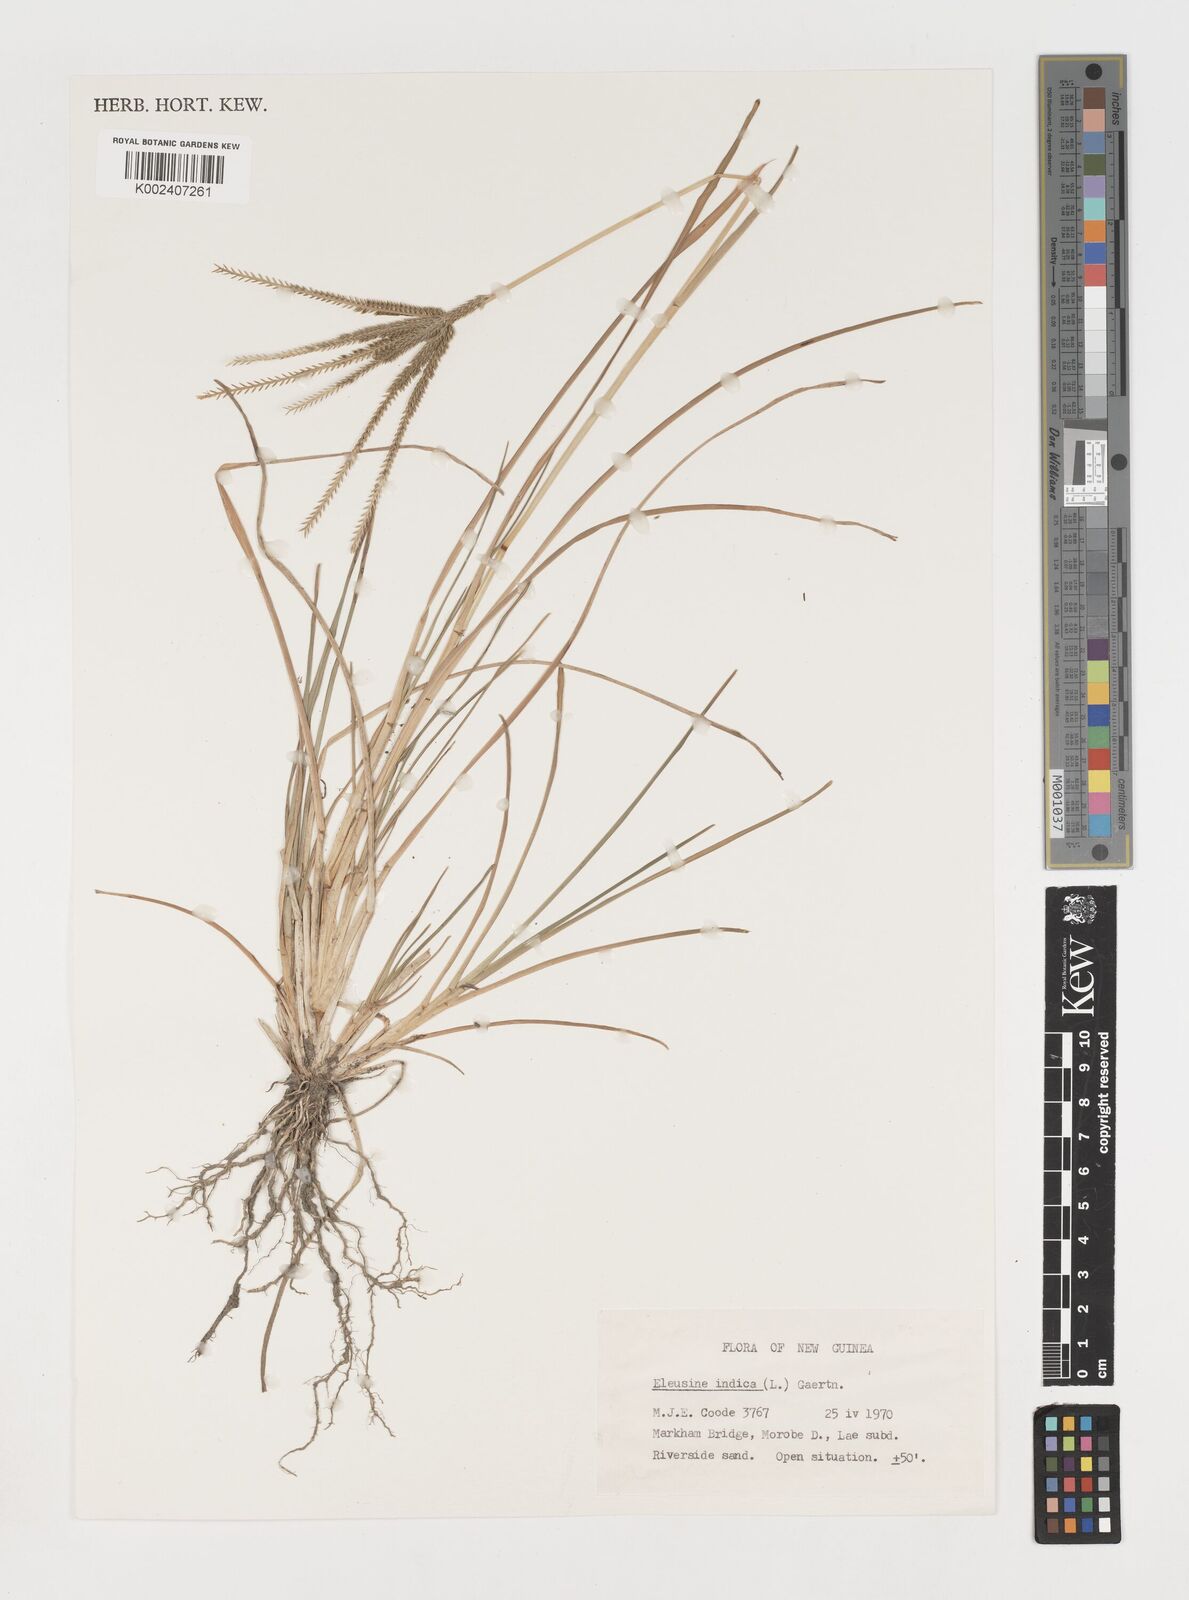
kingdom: Plantae
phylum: Tracheophyta
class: Liliopsida
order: Poales
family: Poaceae
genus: Eleusine
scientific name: Eleusine indica
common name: Yard-grass
